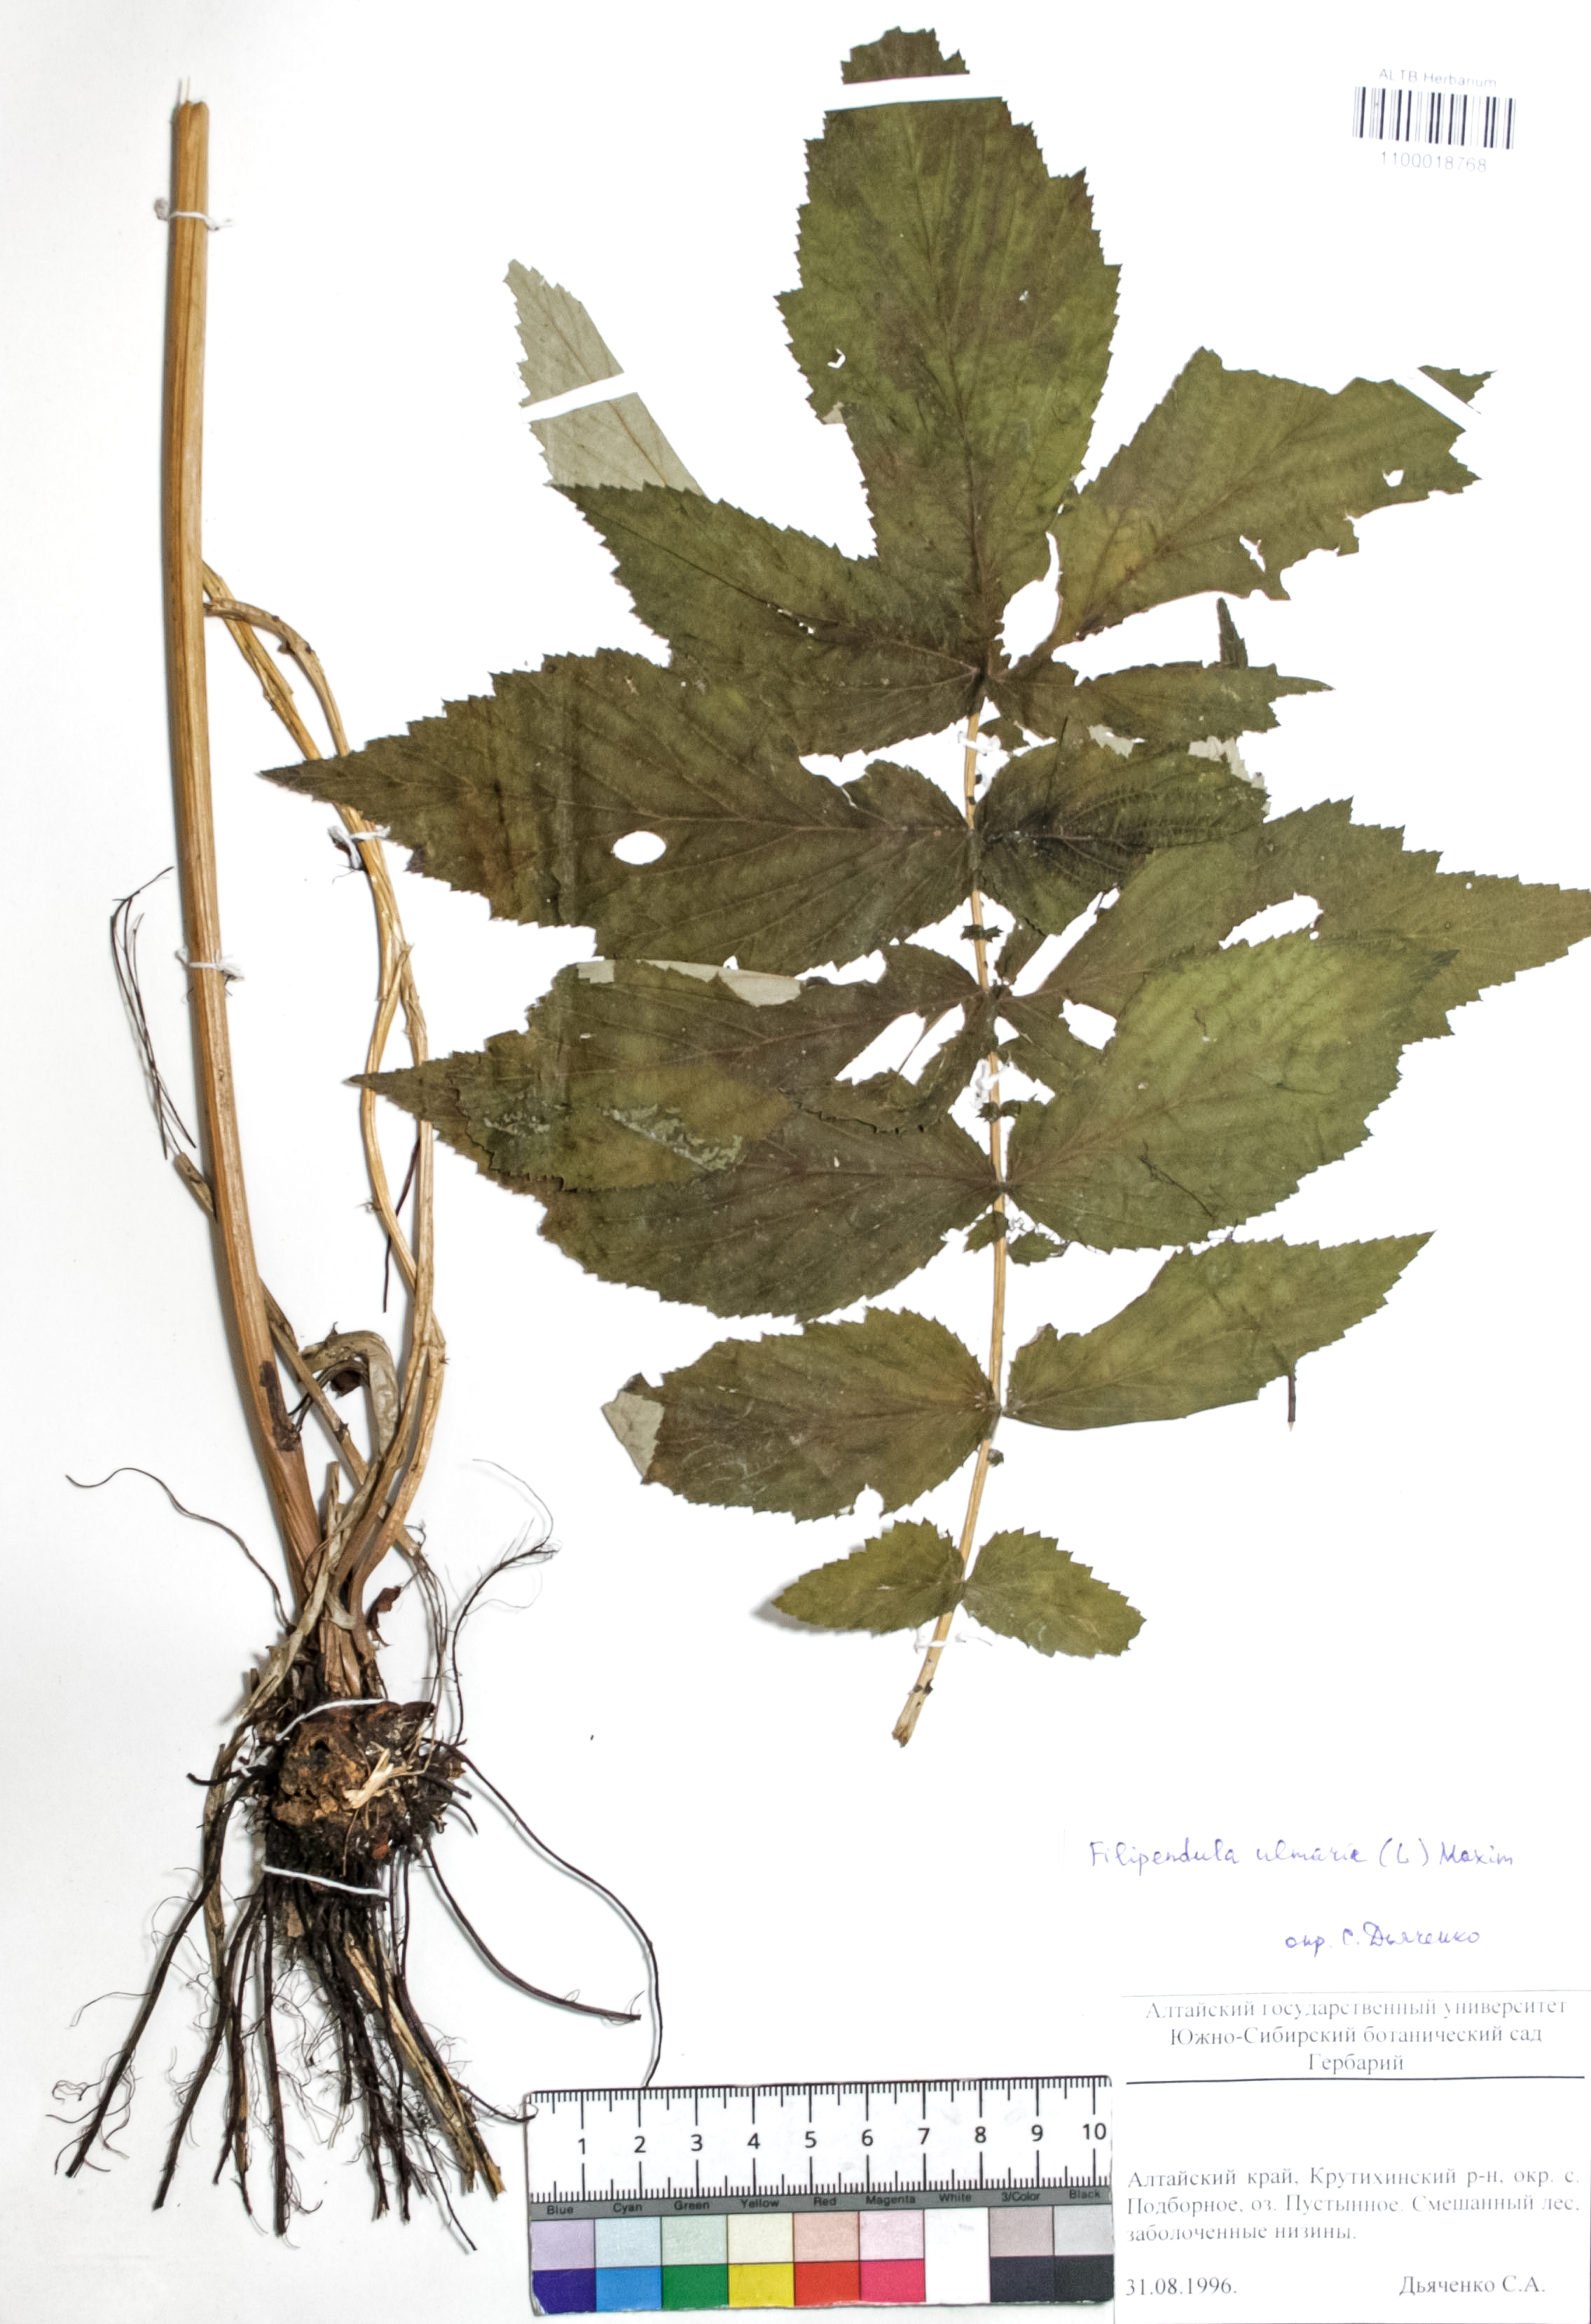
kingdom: Plantae
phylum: Tracheophyta
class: Magnoliopsida
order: Rosales
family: Rosaceae
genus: Filipendula
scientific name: Filipendula ulmaria
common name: Meadowsweet
